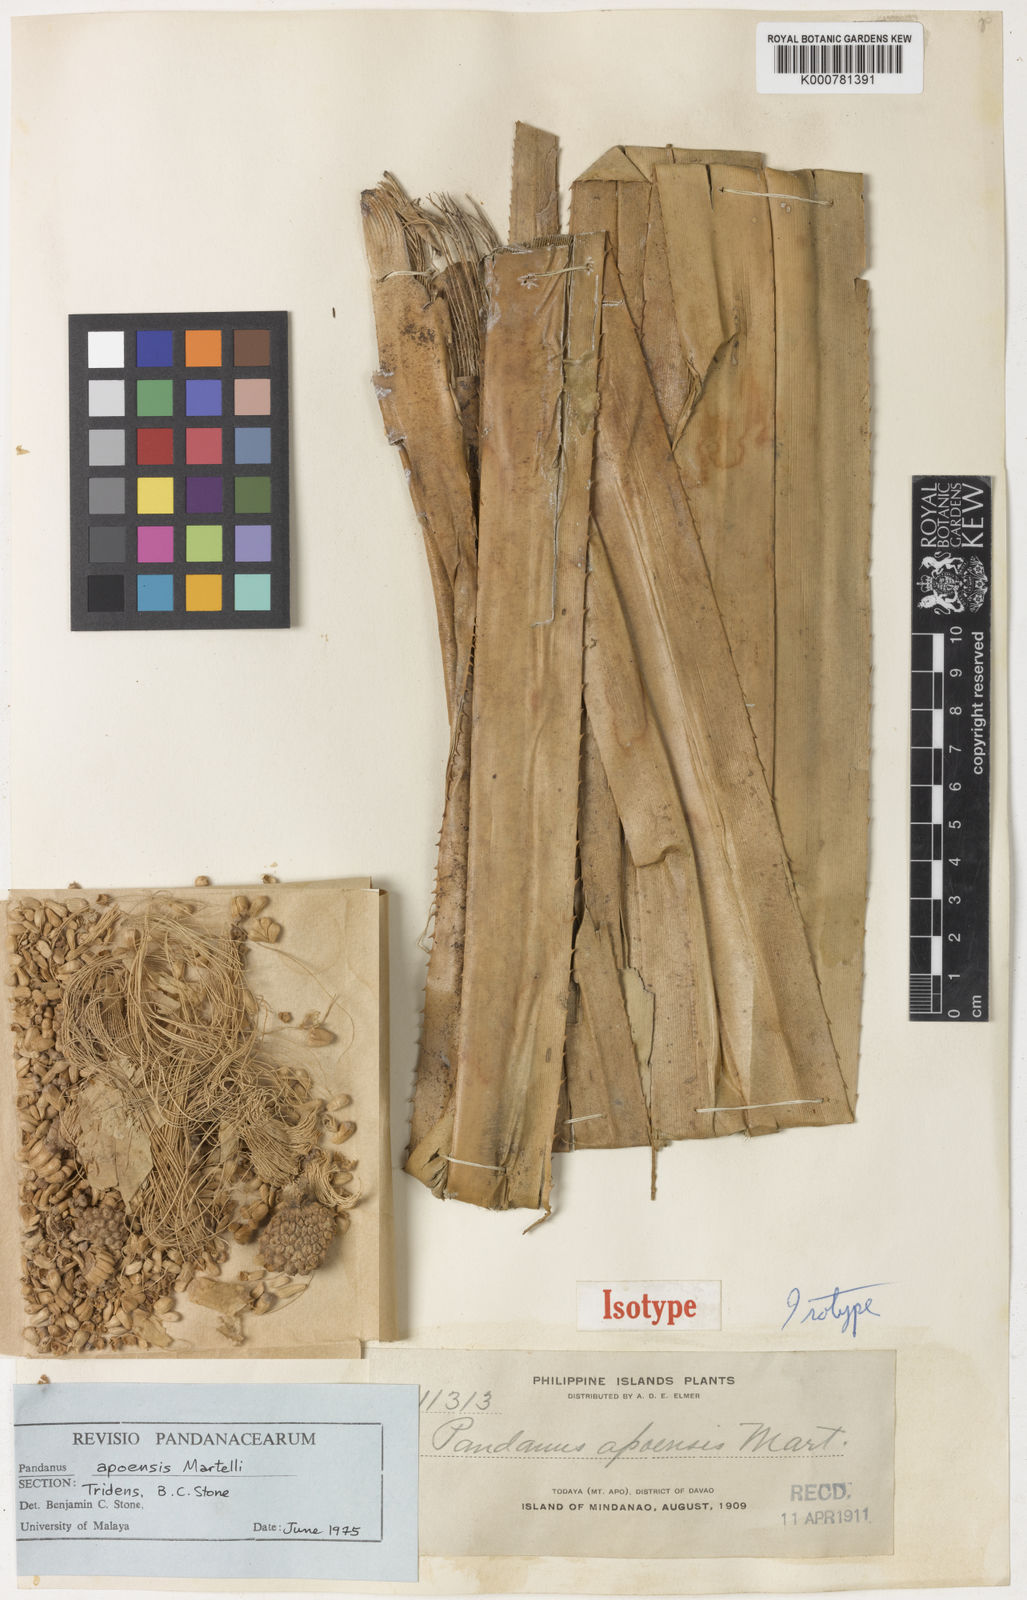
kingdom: Plantae
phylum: Tracheophyta
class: Liliopsida
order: Pandanales
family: Pandanaceae
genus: Pandanus
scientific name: Pandanus
